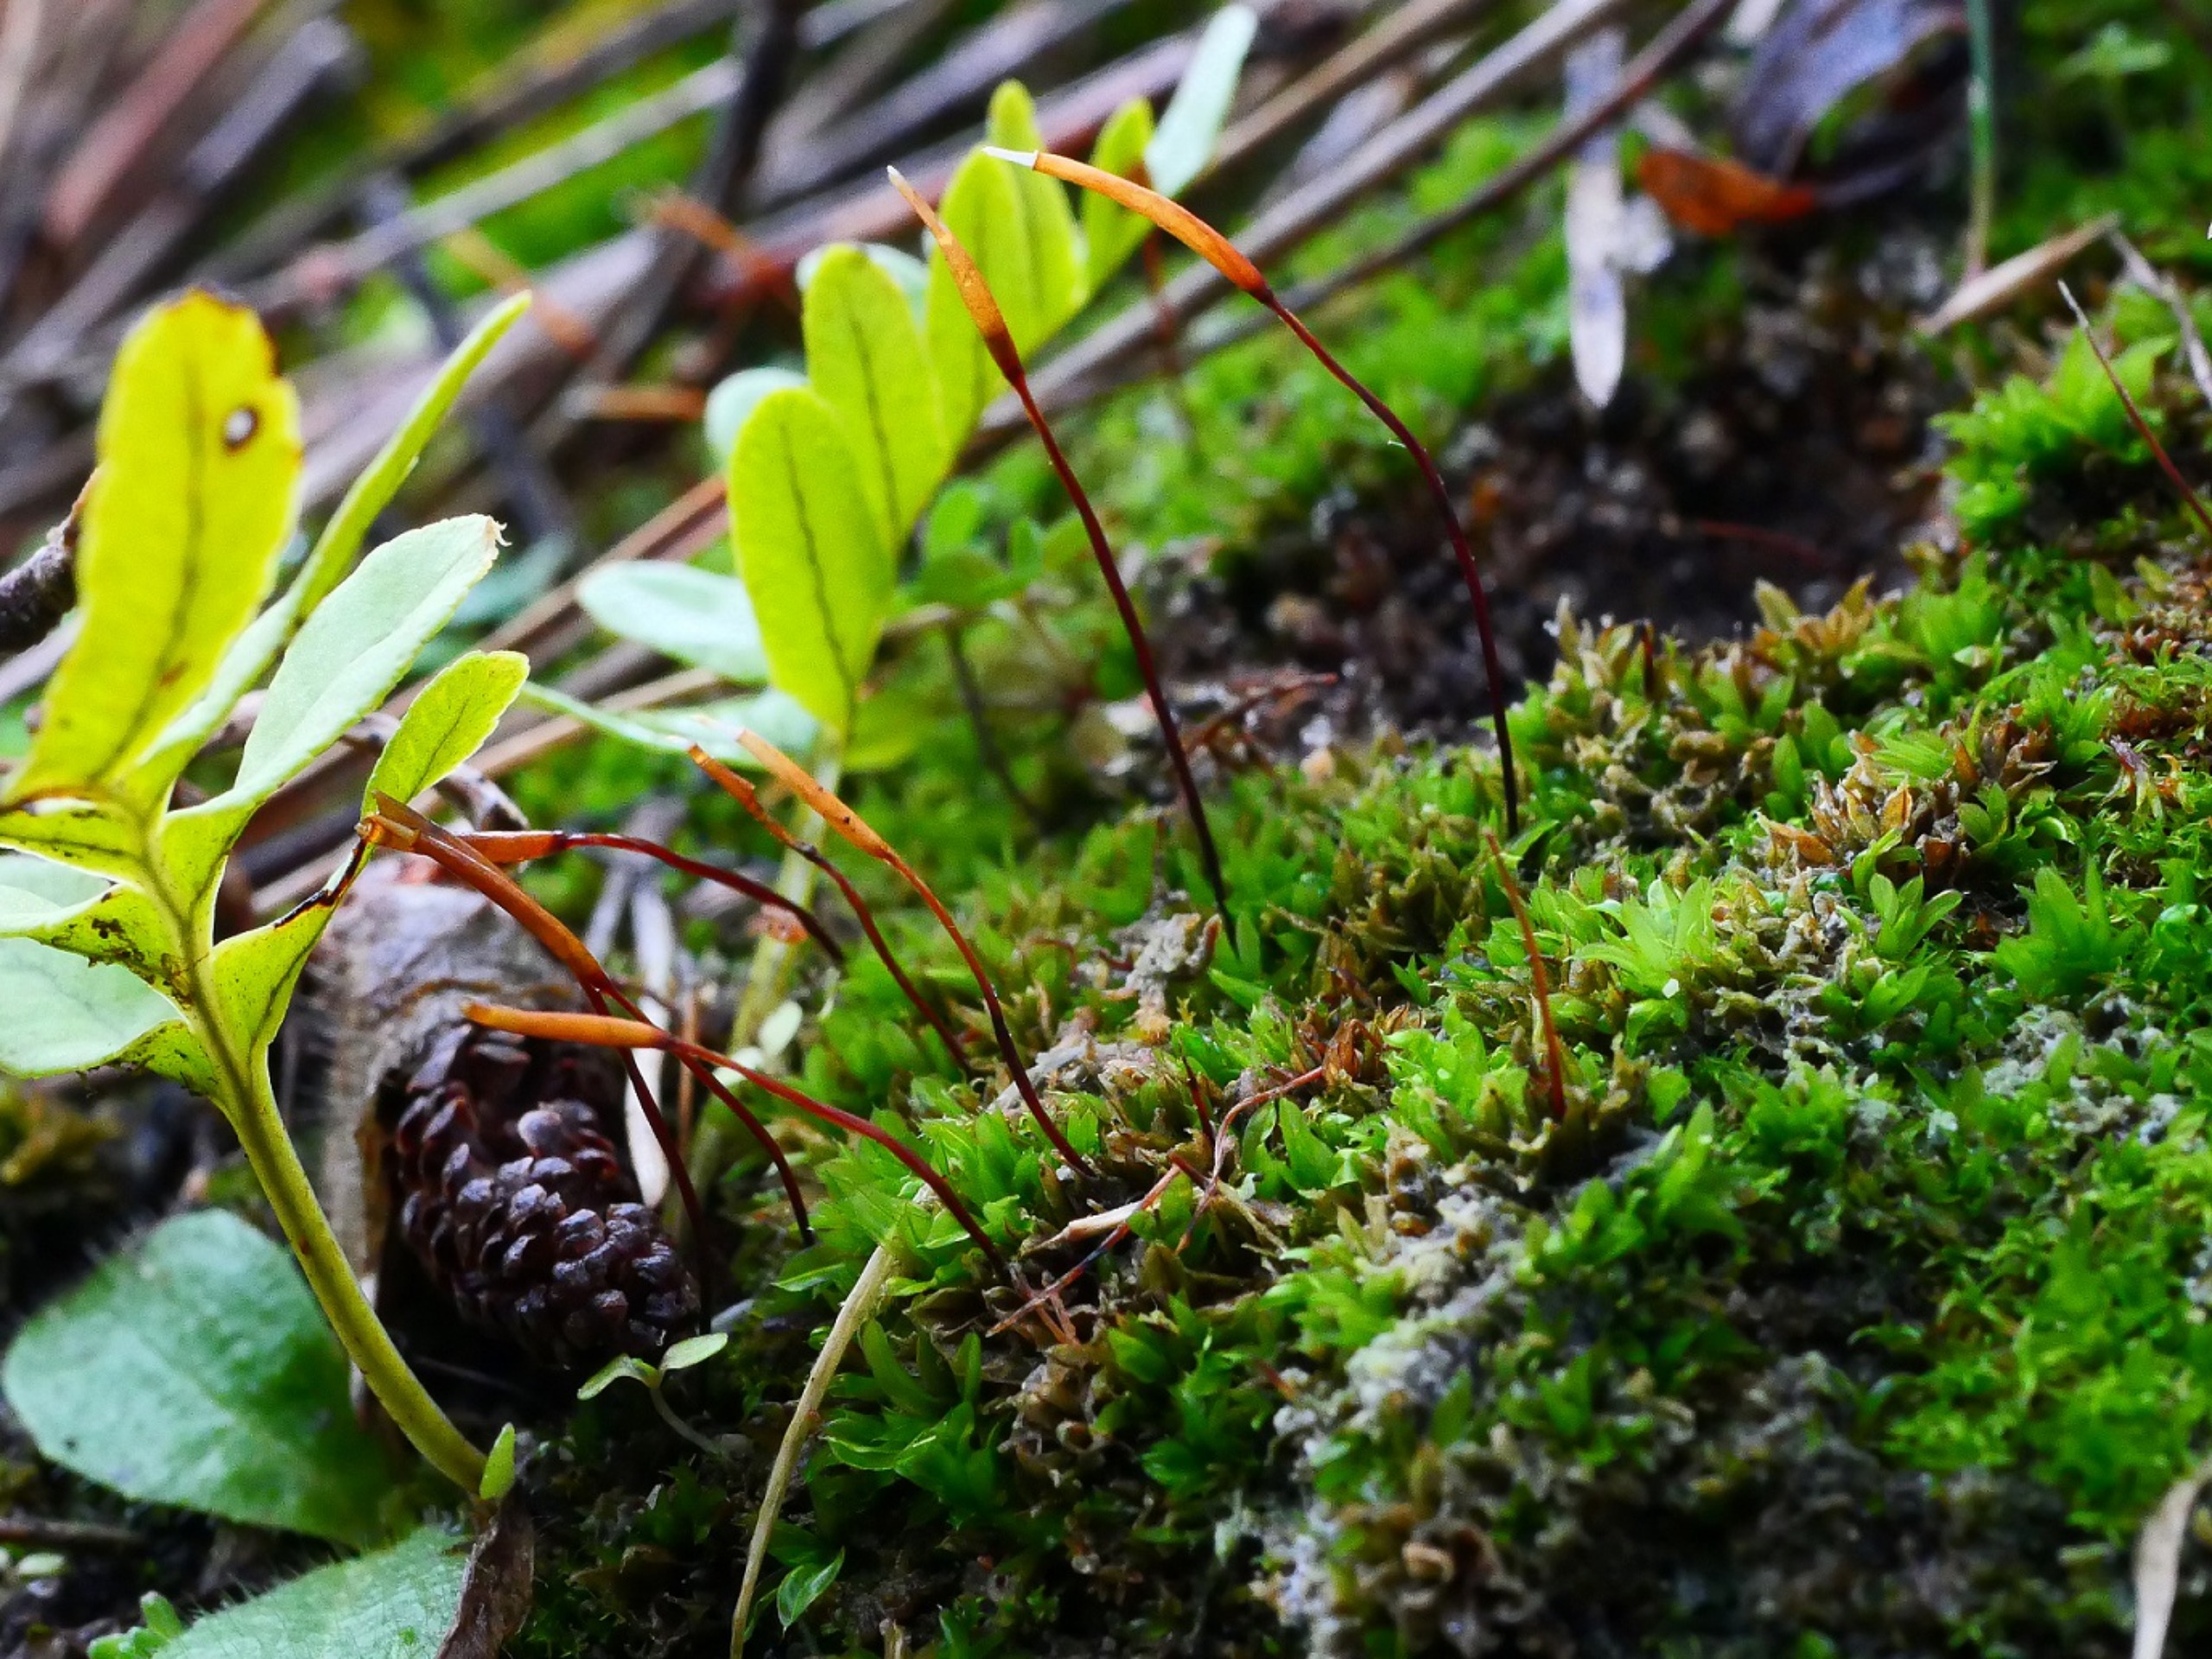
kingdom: Plantae
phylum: Bryophyta
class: Bryopsida
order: Pottiales
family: Pottiaceae
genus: Tortula
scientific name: Tortula subulata
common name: Syl-snotand
